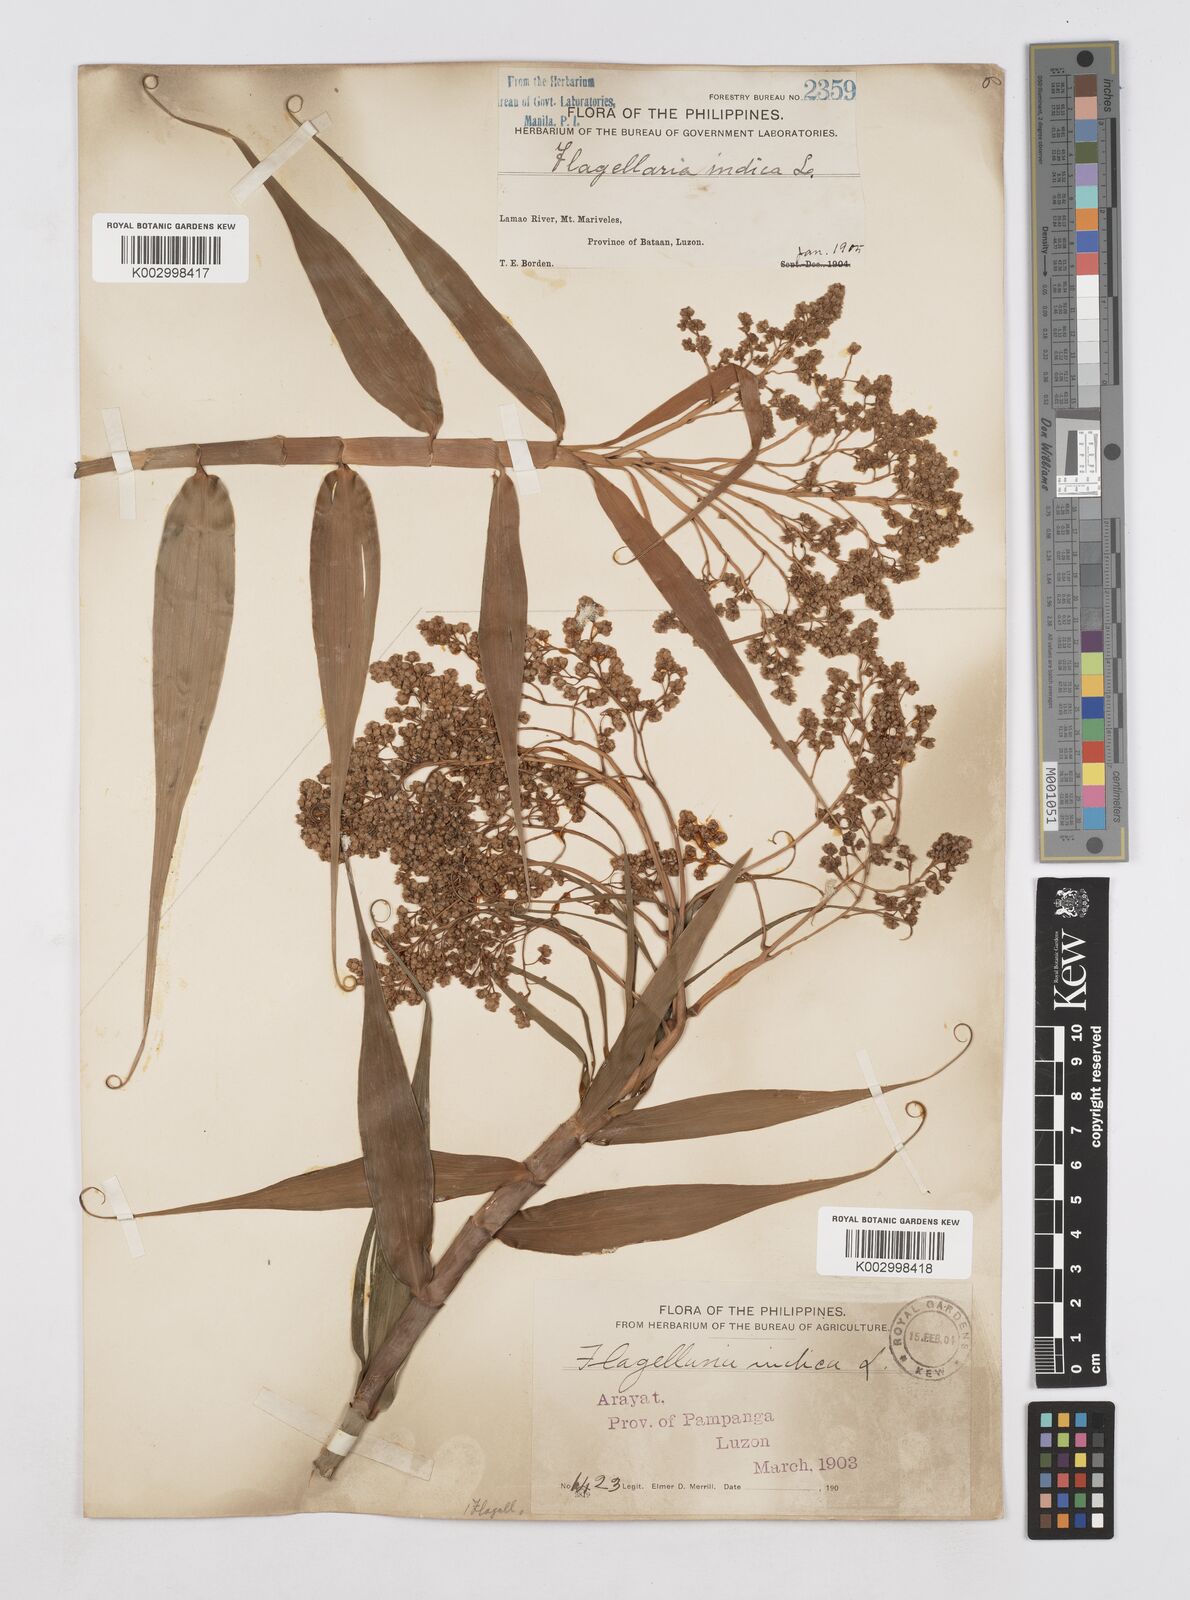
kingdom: Plantae
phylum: Tracheophyta
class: Liliopsida
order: Poales
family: Flagellariaceae
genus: Flagellaria
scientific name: Flagellaria indica
